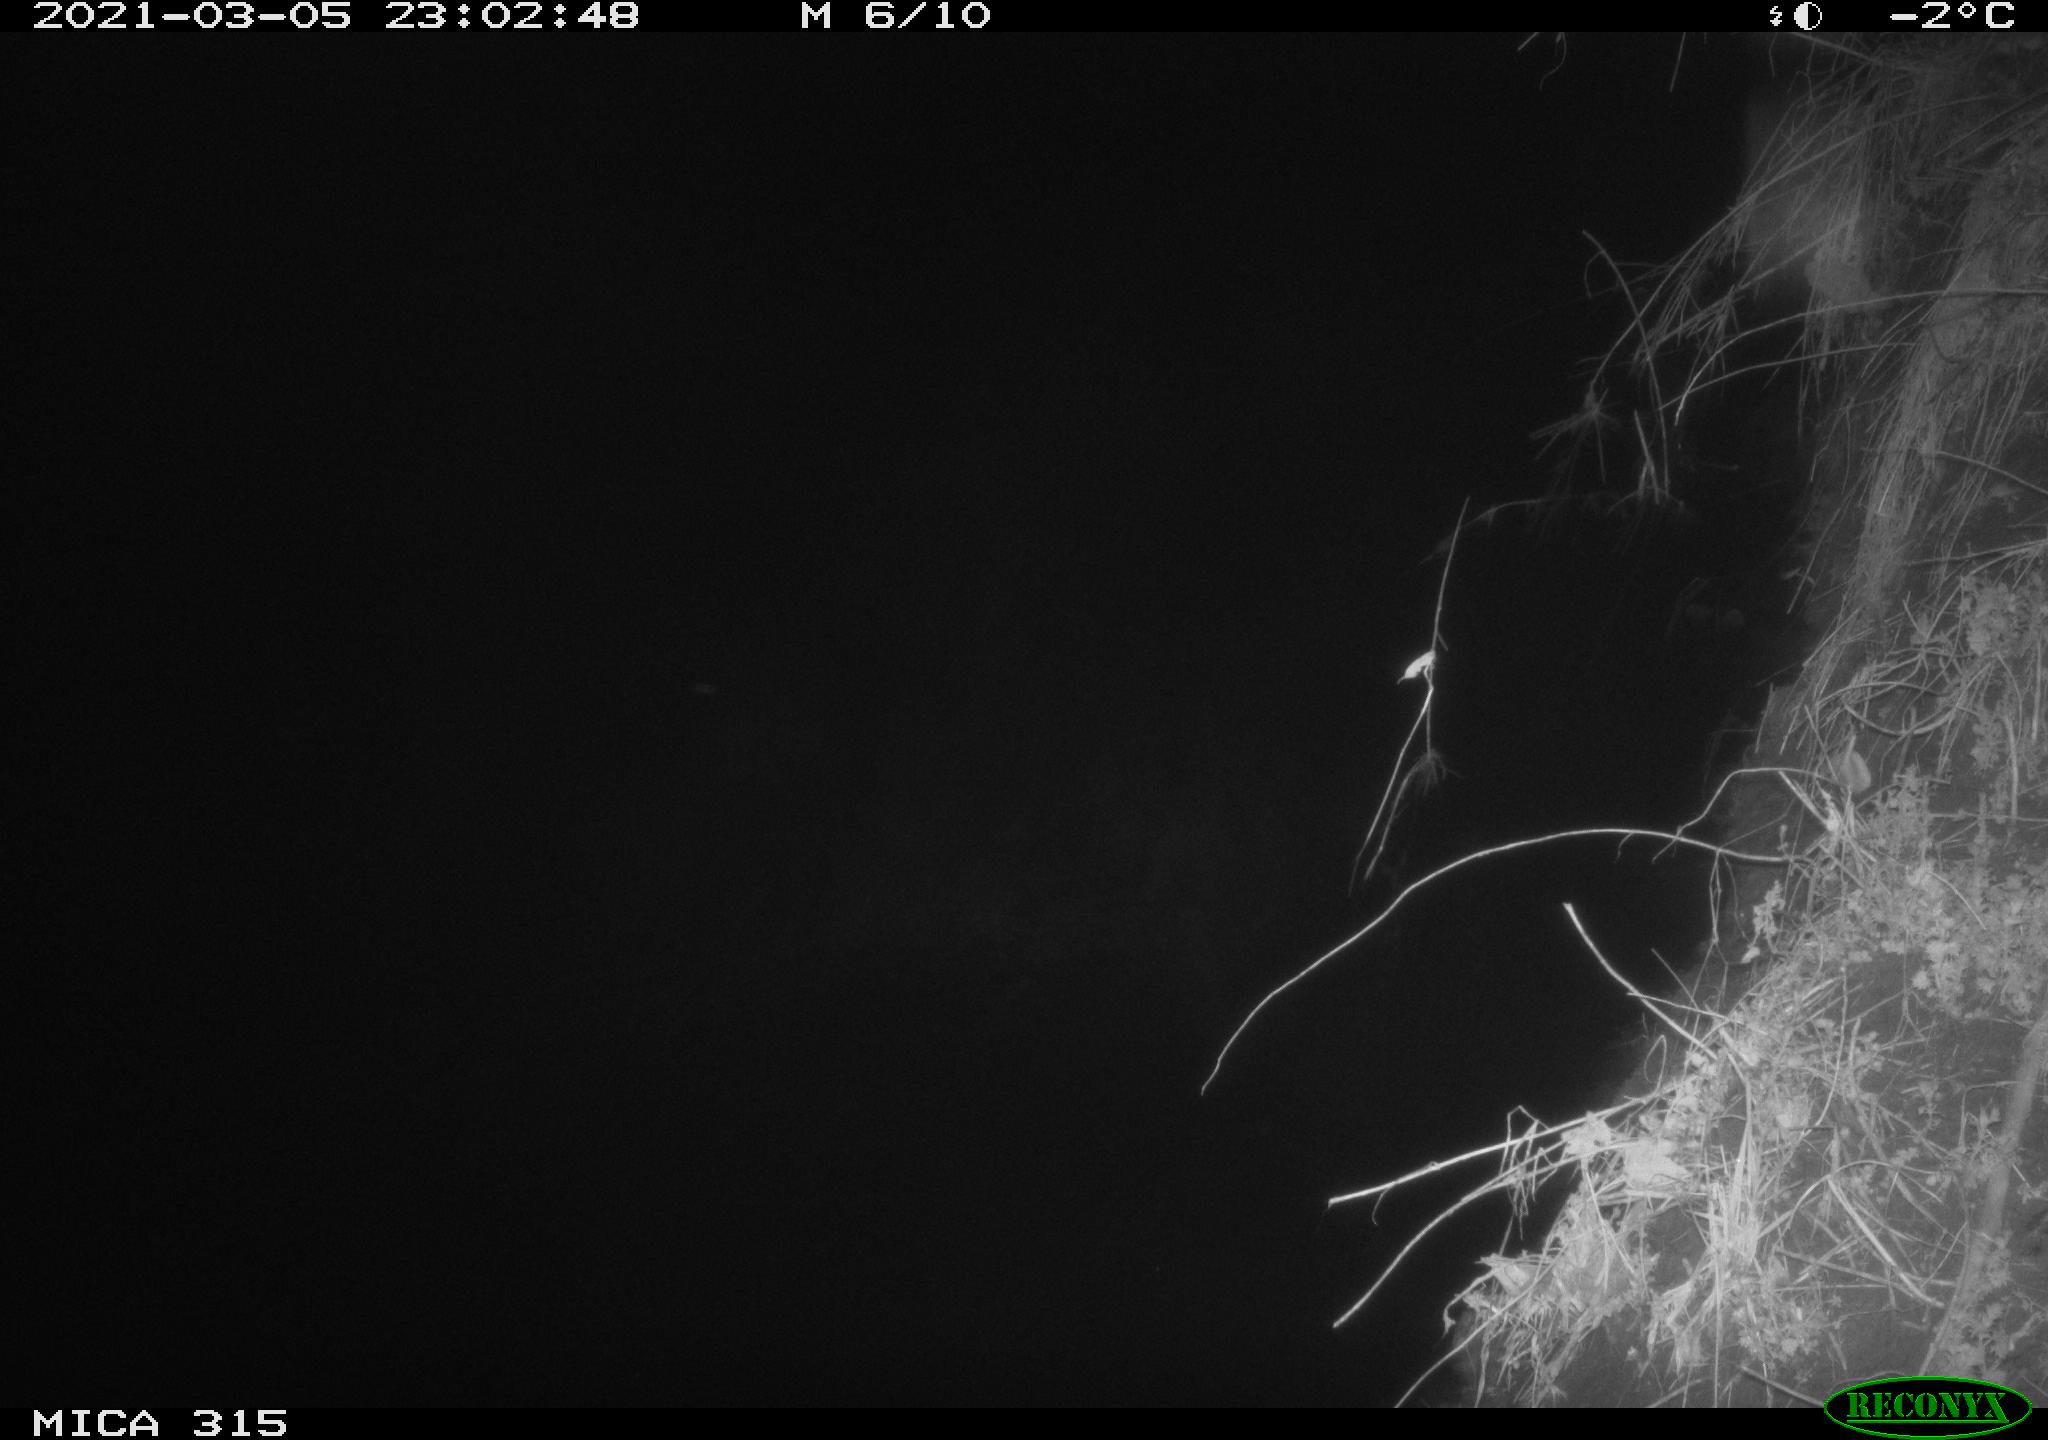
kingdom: Animalia
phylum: Chordata
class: Mammalia
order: Rodentia
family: Muridae
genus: Rattus
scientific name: Rattus norvegicus
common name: Brown rat
